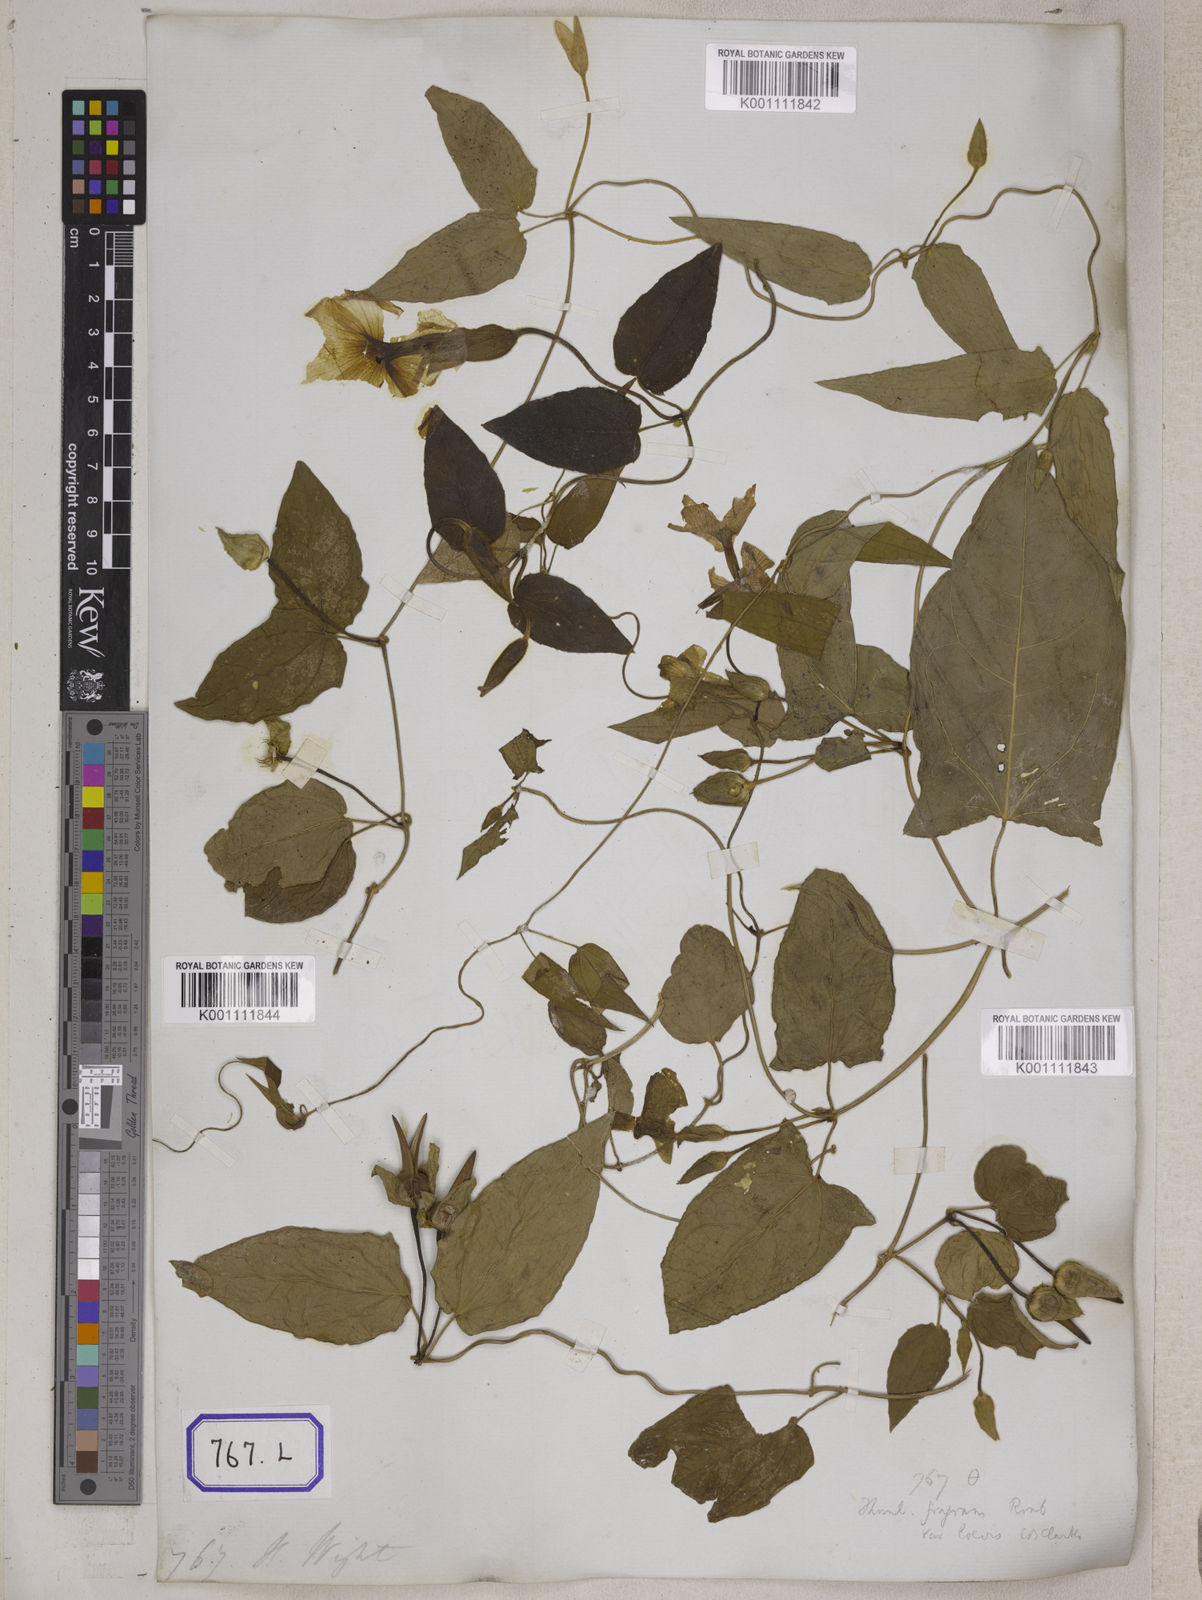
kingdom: Plantae
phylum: Tracheophyta
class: Magnoliopsida
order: Lamiales
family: Acanthaceae
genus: Thunbergia
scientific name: Thunbergia fragrans
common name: Whitelady
